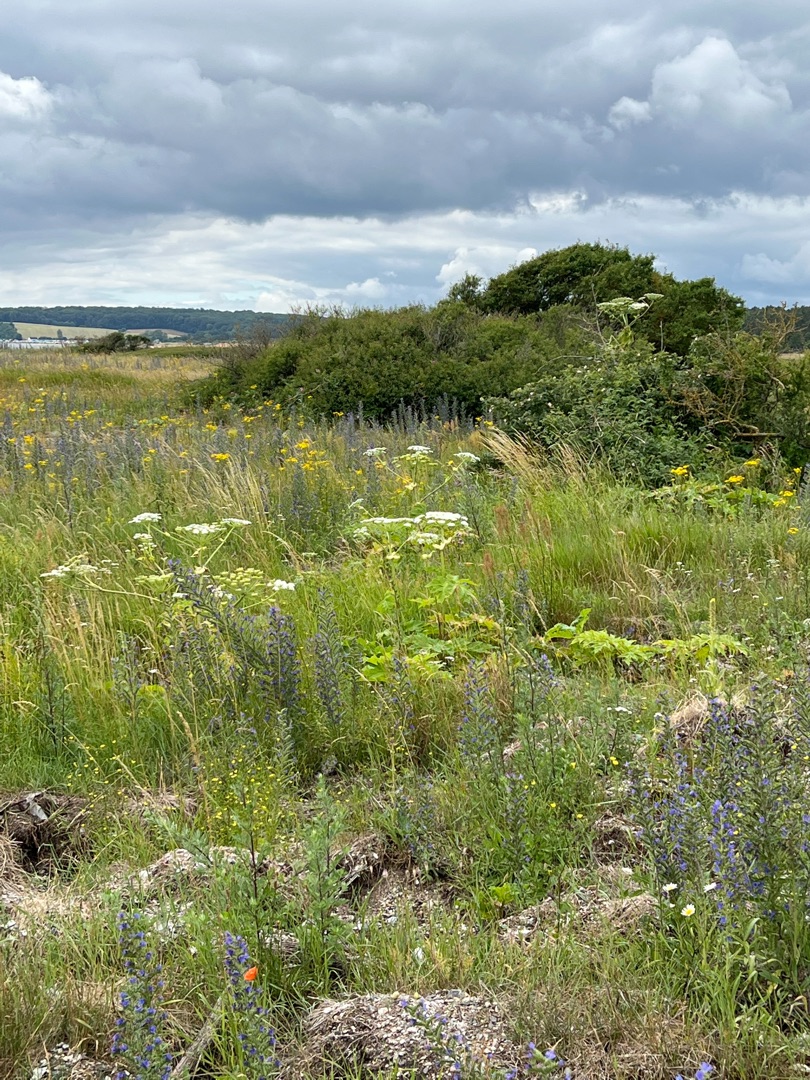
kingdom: Plantae
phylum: Tracheophyta
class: Magnoliopsida
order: Apiales
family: Apiaceae
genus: Heracleum
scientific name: Heracleum mantegazzianum
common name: Kæmpe-bjørneklo
